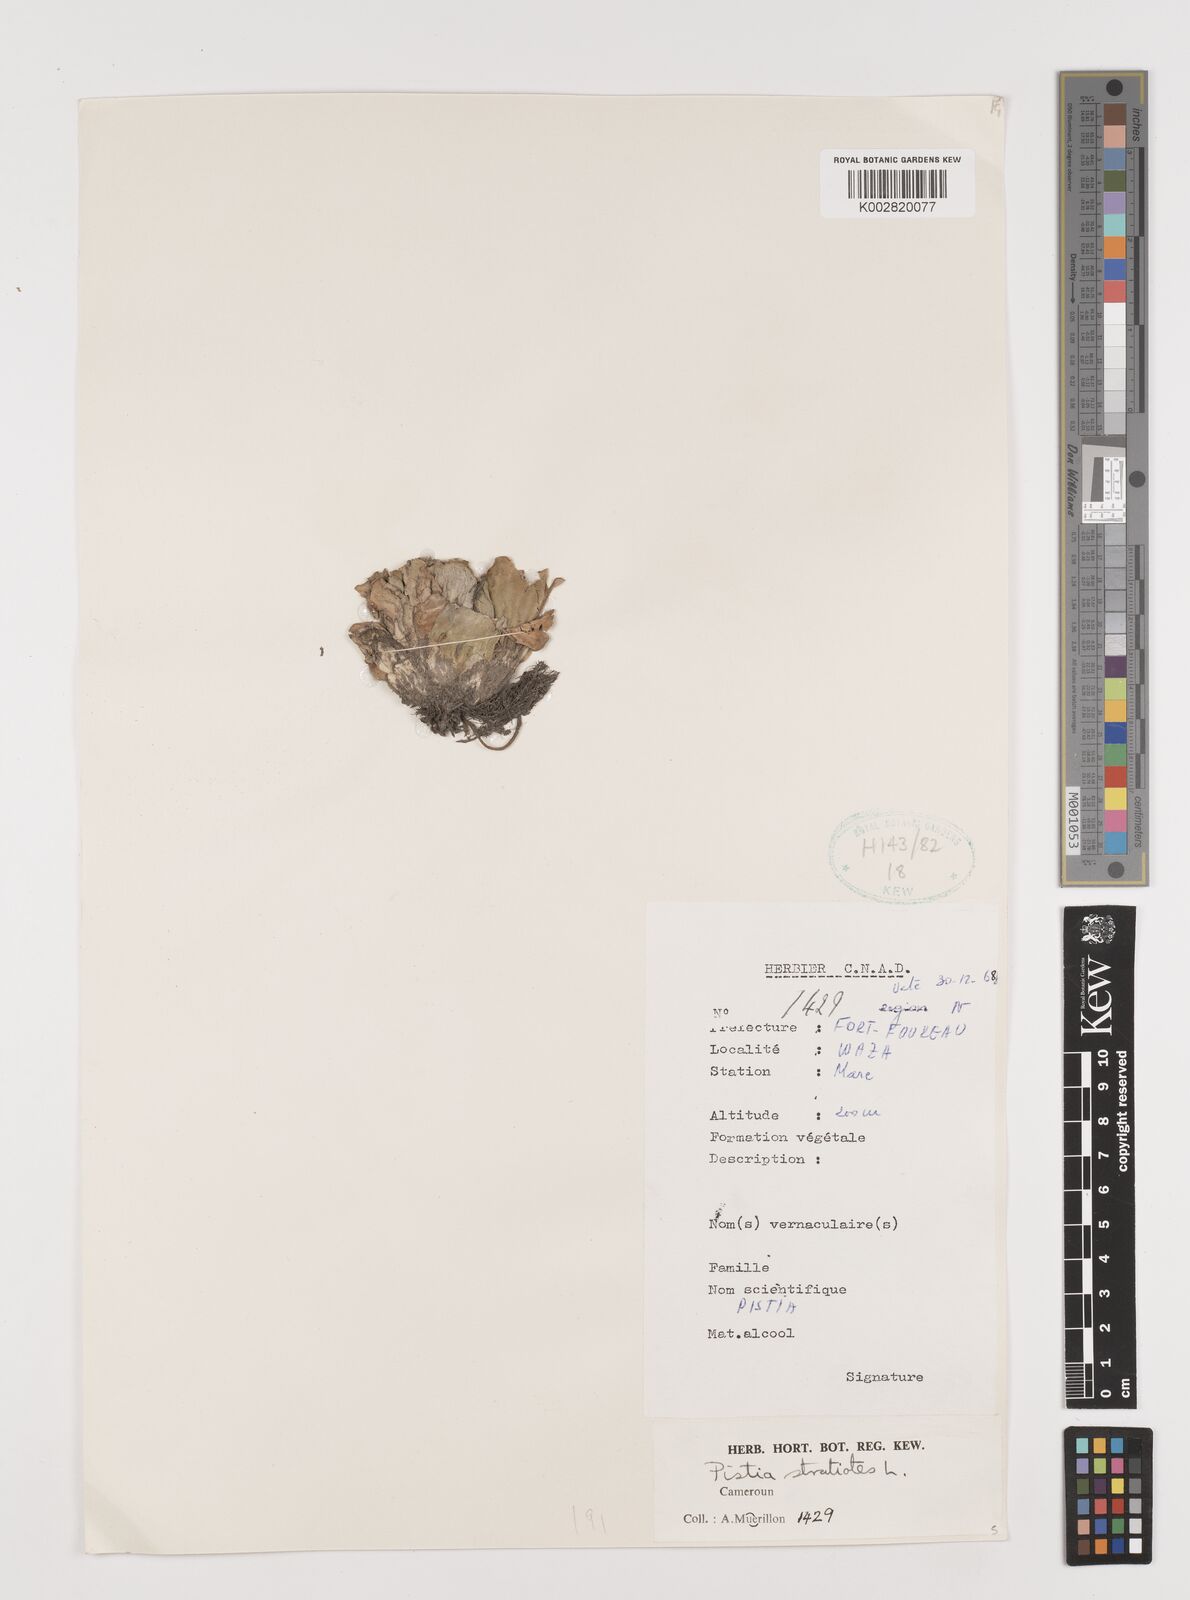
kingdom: Plantae
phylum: Tracheophyta
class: Liliopsida
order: Alismatales
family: Araceae
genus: Pistia
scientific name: Pistia stratiotes
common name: Water lettuce
